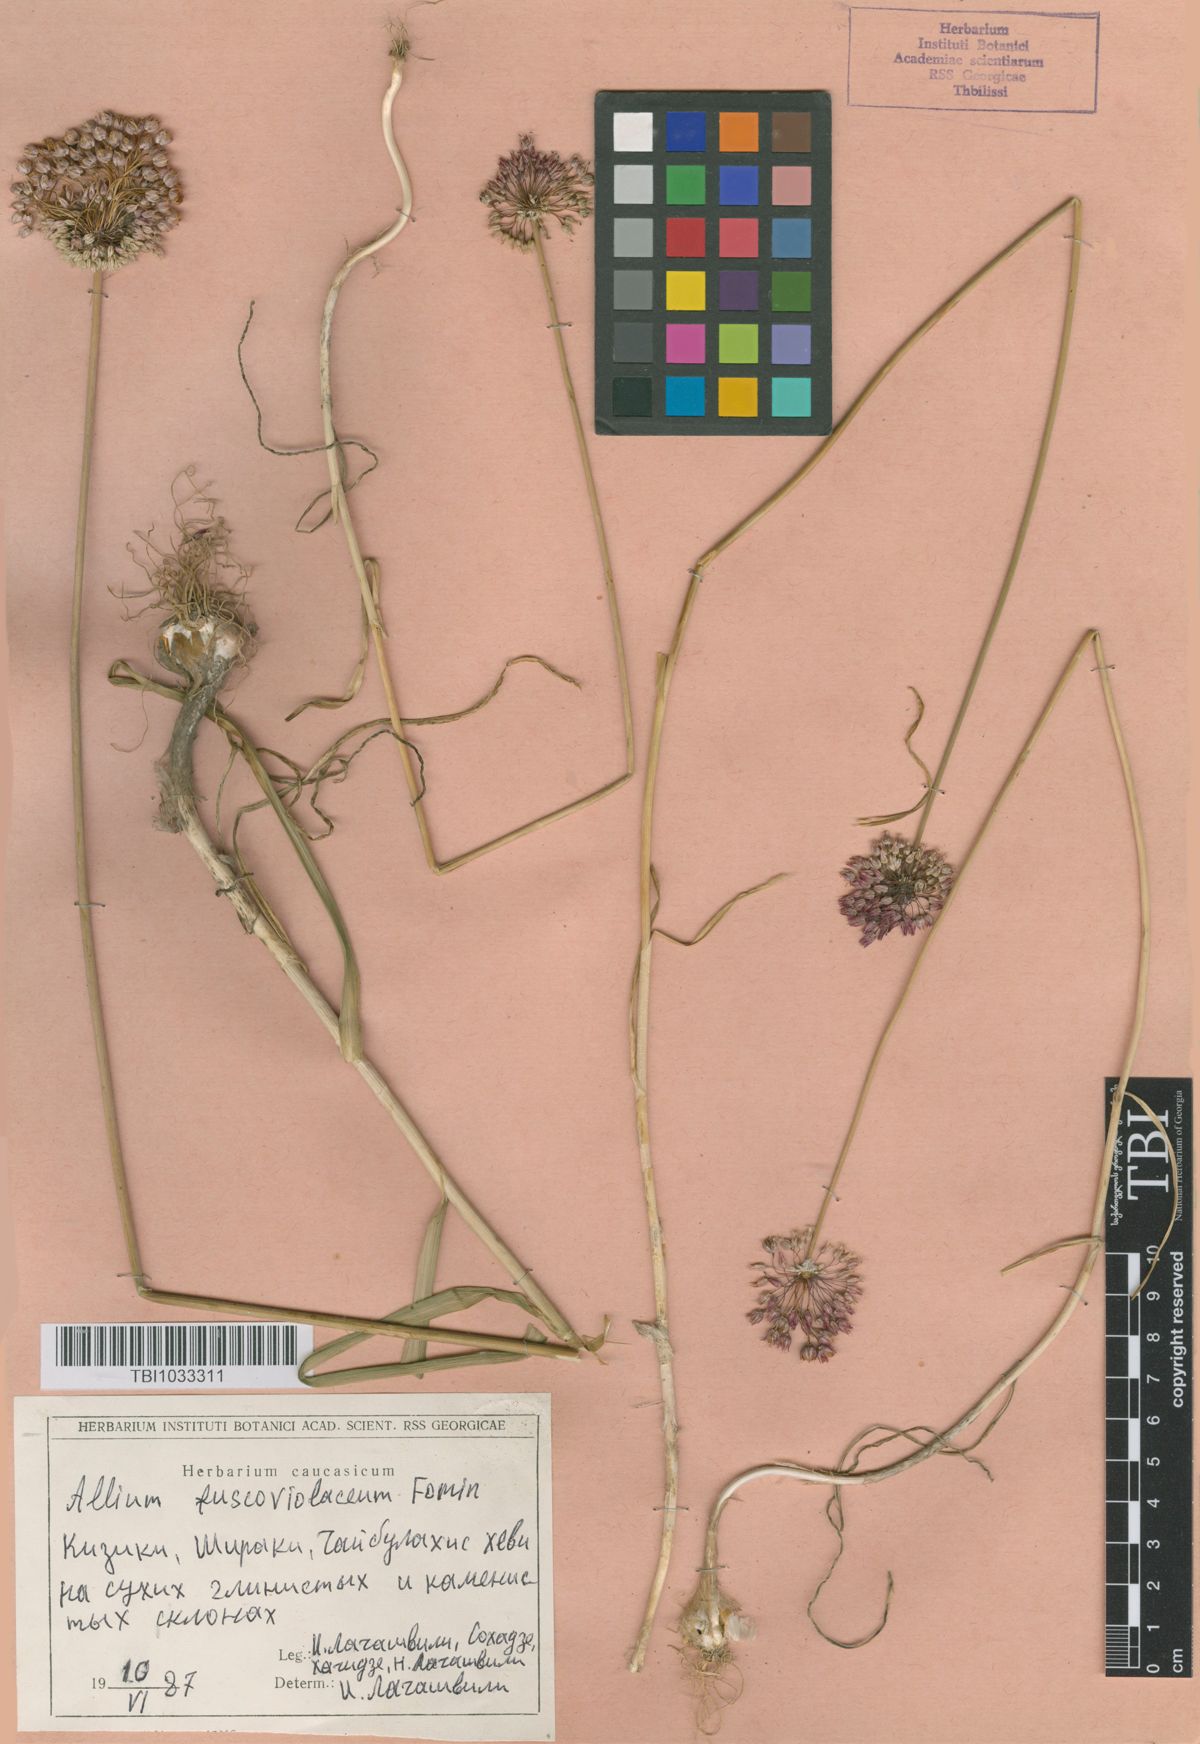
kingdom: Plantae
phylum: Tracheophyta
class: Liliopsida
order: Asparagales
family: Amaryllidaceae
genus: Allium
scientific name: Allium fuscoviolaceum
